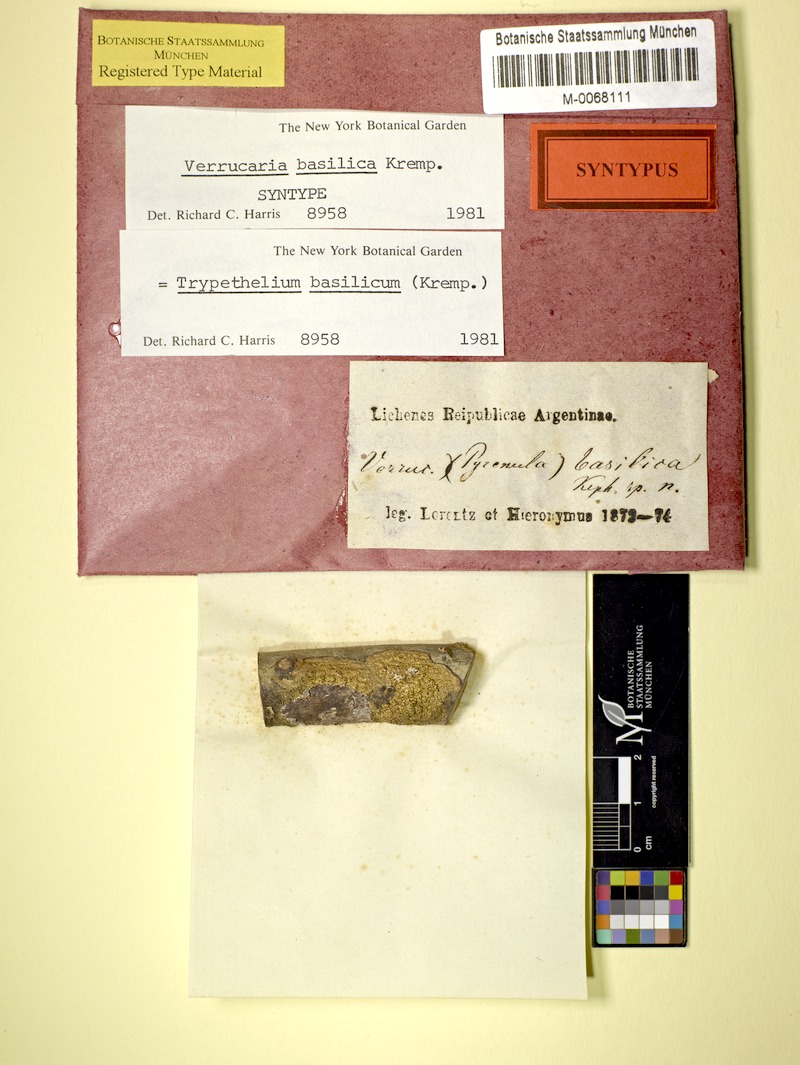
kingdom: Fungi
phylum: Ascomycota
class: Dothideomycetes
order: Trypetheliales
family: Trypetheliaceae
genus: Astrothelium
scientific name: Astrothelium basilicum
